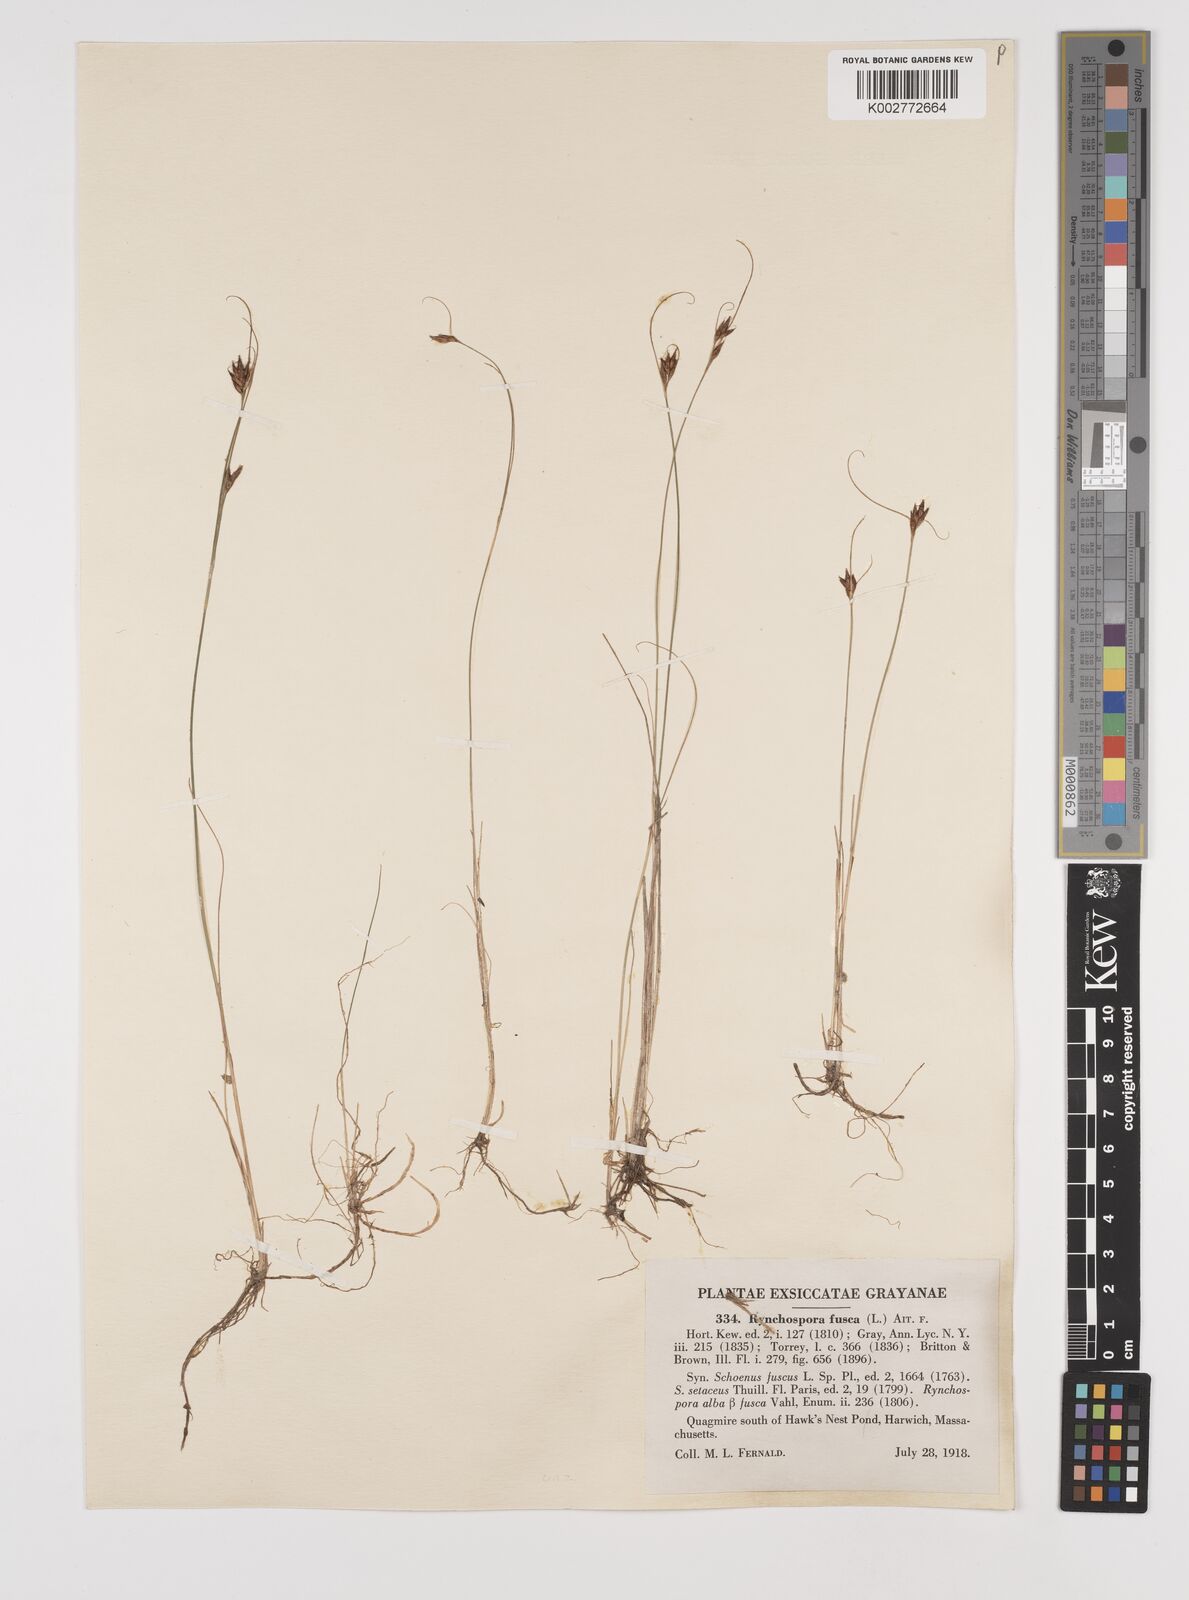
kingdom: Plantae
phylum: Tracheophyta
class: Liliopsida
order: Poales
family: Cyperaceae
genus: Rhynchospora
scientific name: Rhynchospora fusca
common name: Brown beak-sedge
